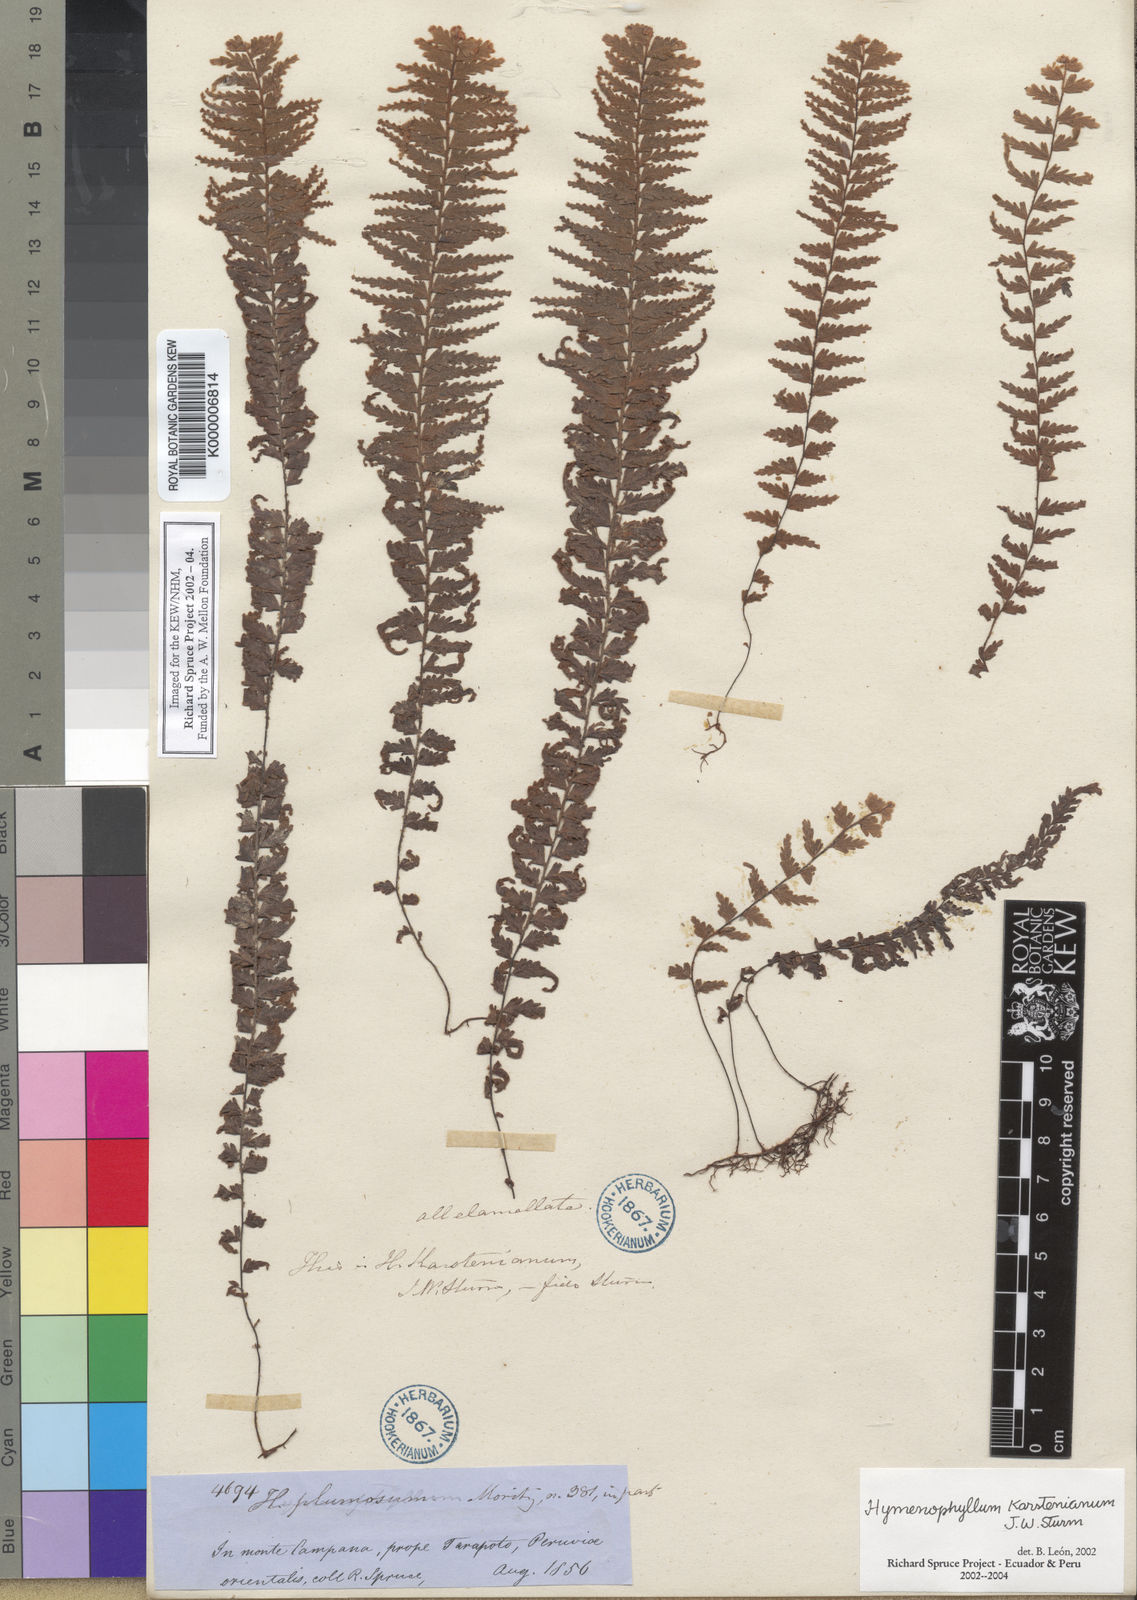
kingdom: Plantae
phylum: Tracheophyta
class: Polypodiopsida
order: Hymenophyllales
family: Hymenophyllaceae
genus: Hymenophyllum
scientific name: Hymenophyllum karstenianum
